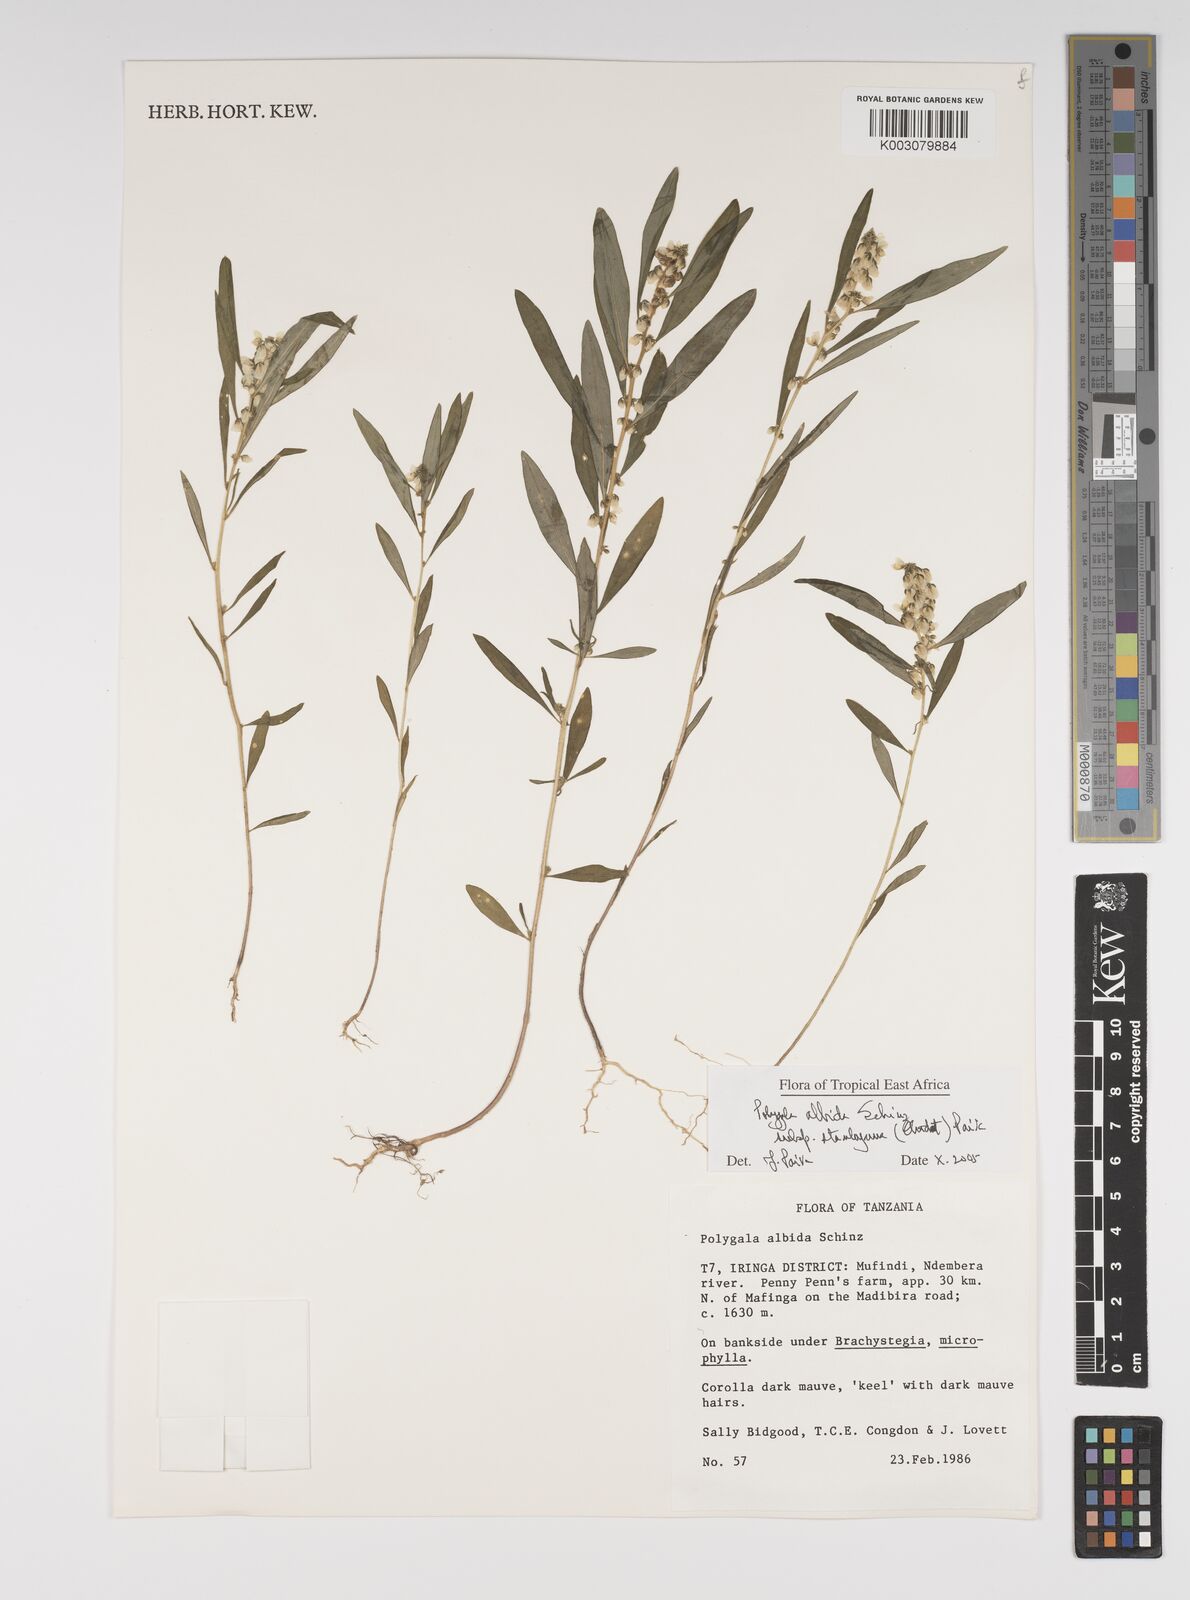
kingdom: Plantae
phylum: Tracheophyta
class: Magnoliopsida
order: Fabales
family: Polygalaceae
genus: Polygala
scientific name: Polygala albida
